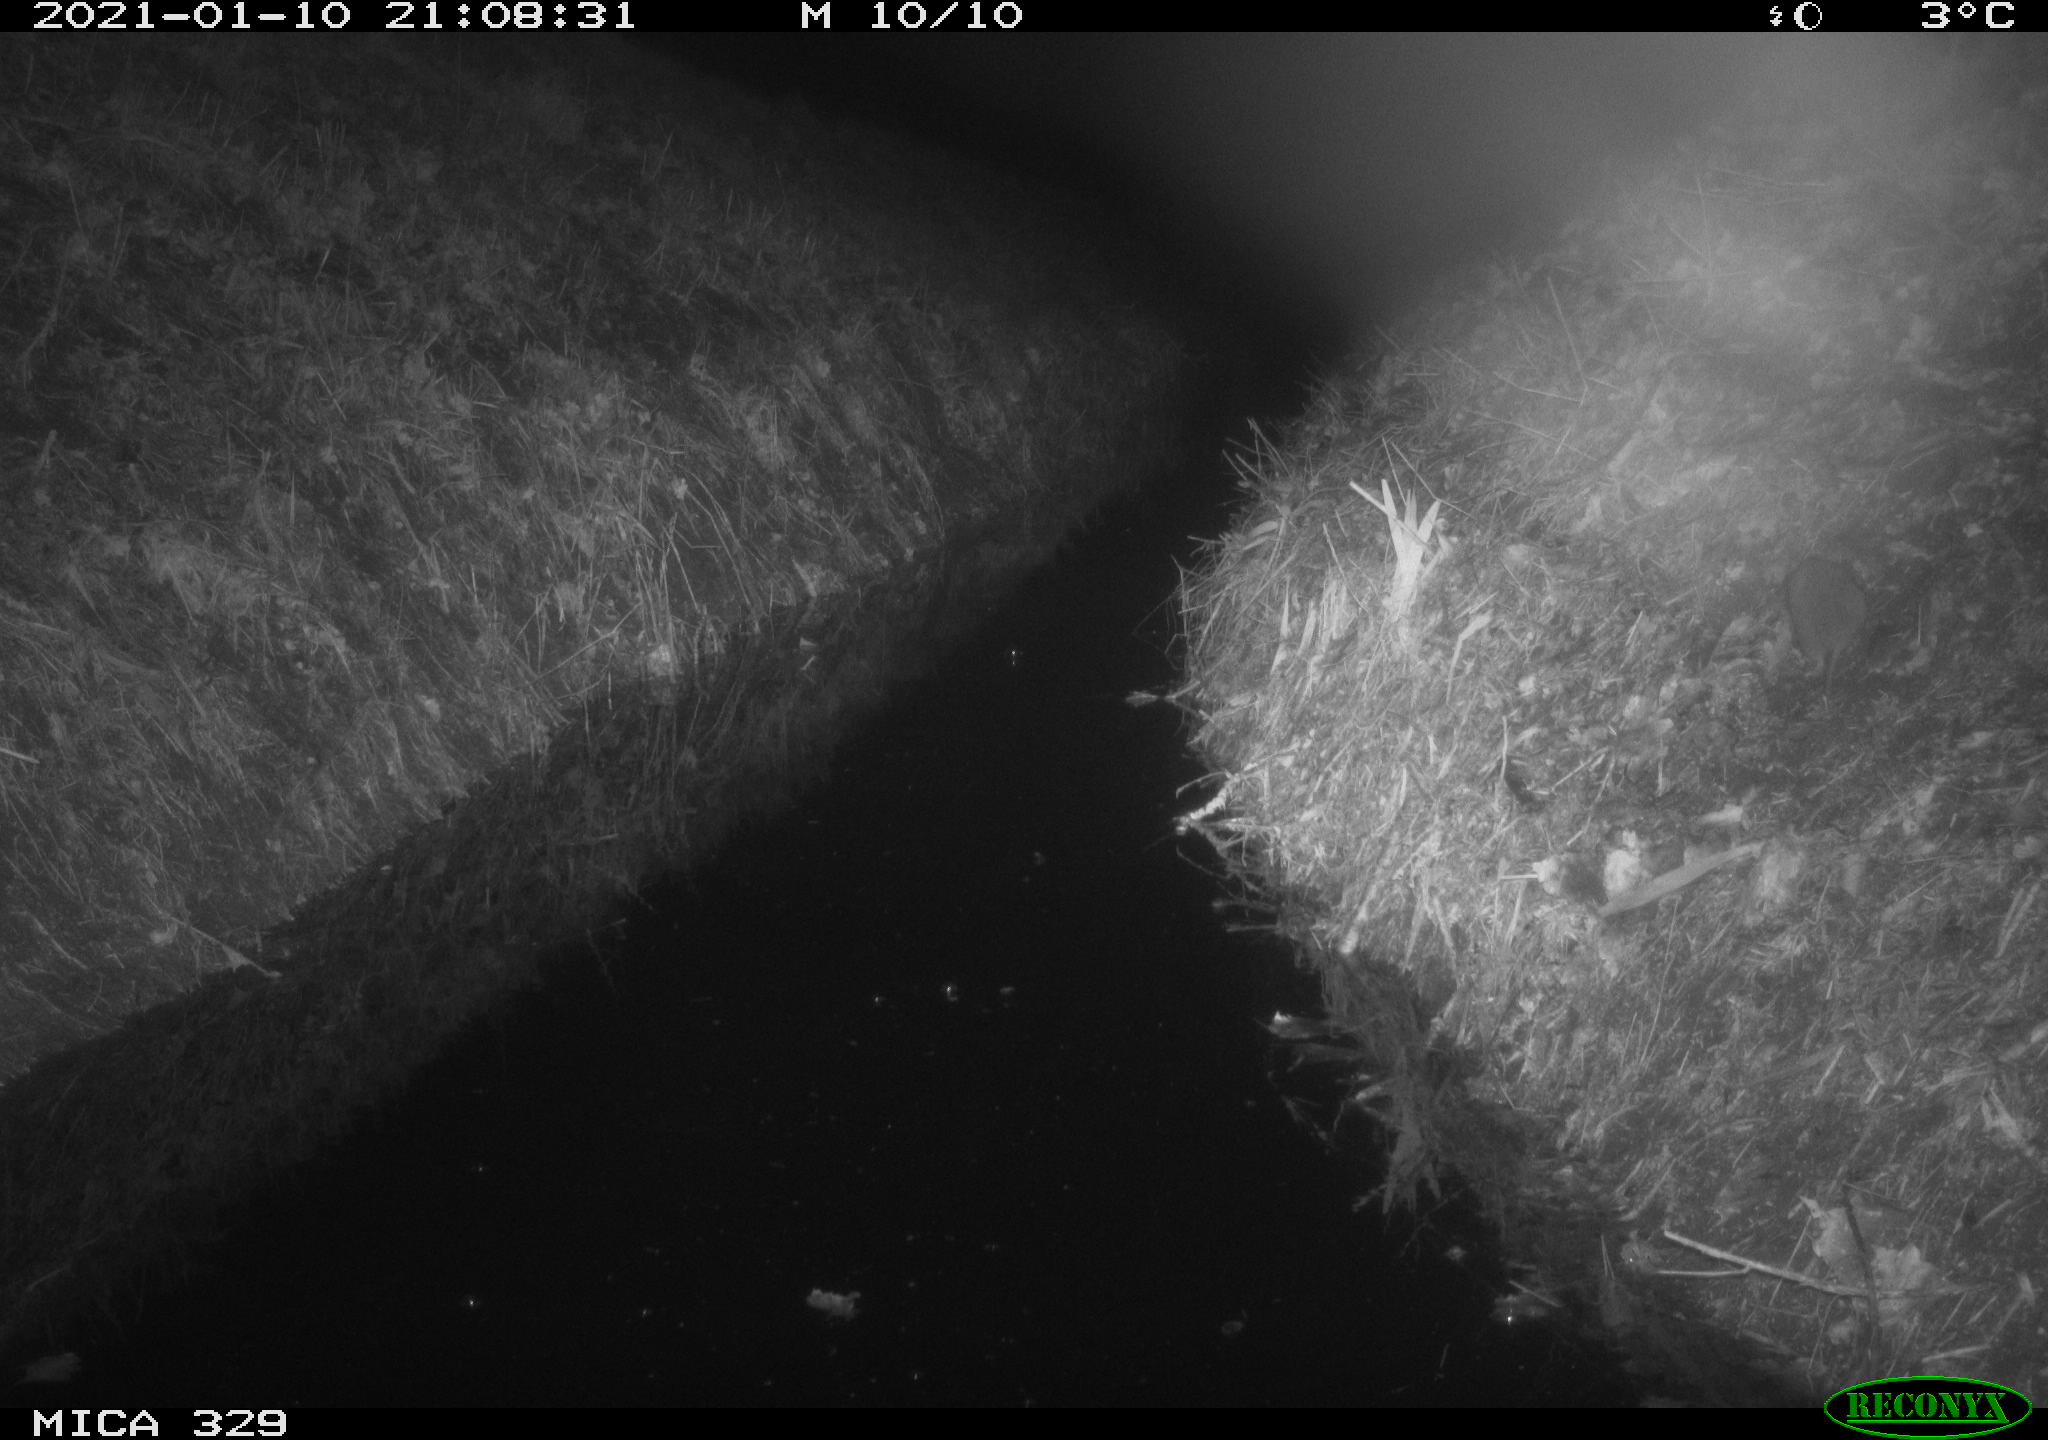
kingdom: Animalia
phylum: Chordata
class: Mammalia
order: Rodentia
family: Muridae
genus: Rattus
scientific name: Rattus norvegicus
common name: Brown rat
